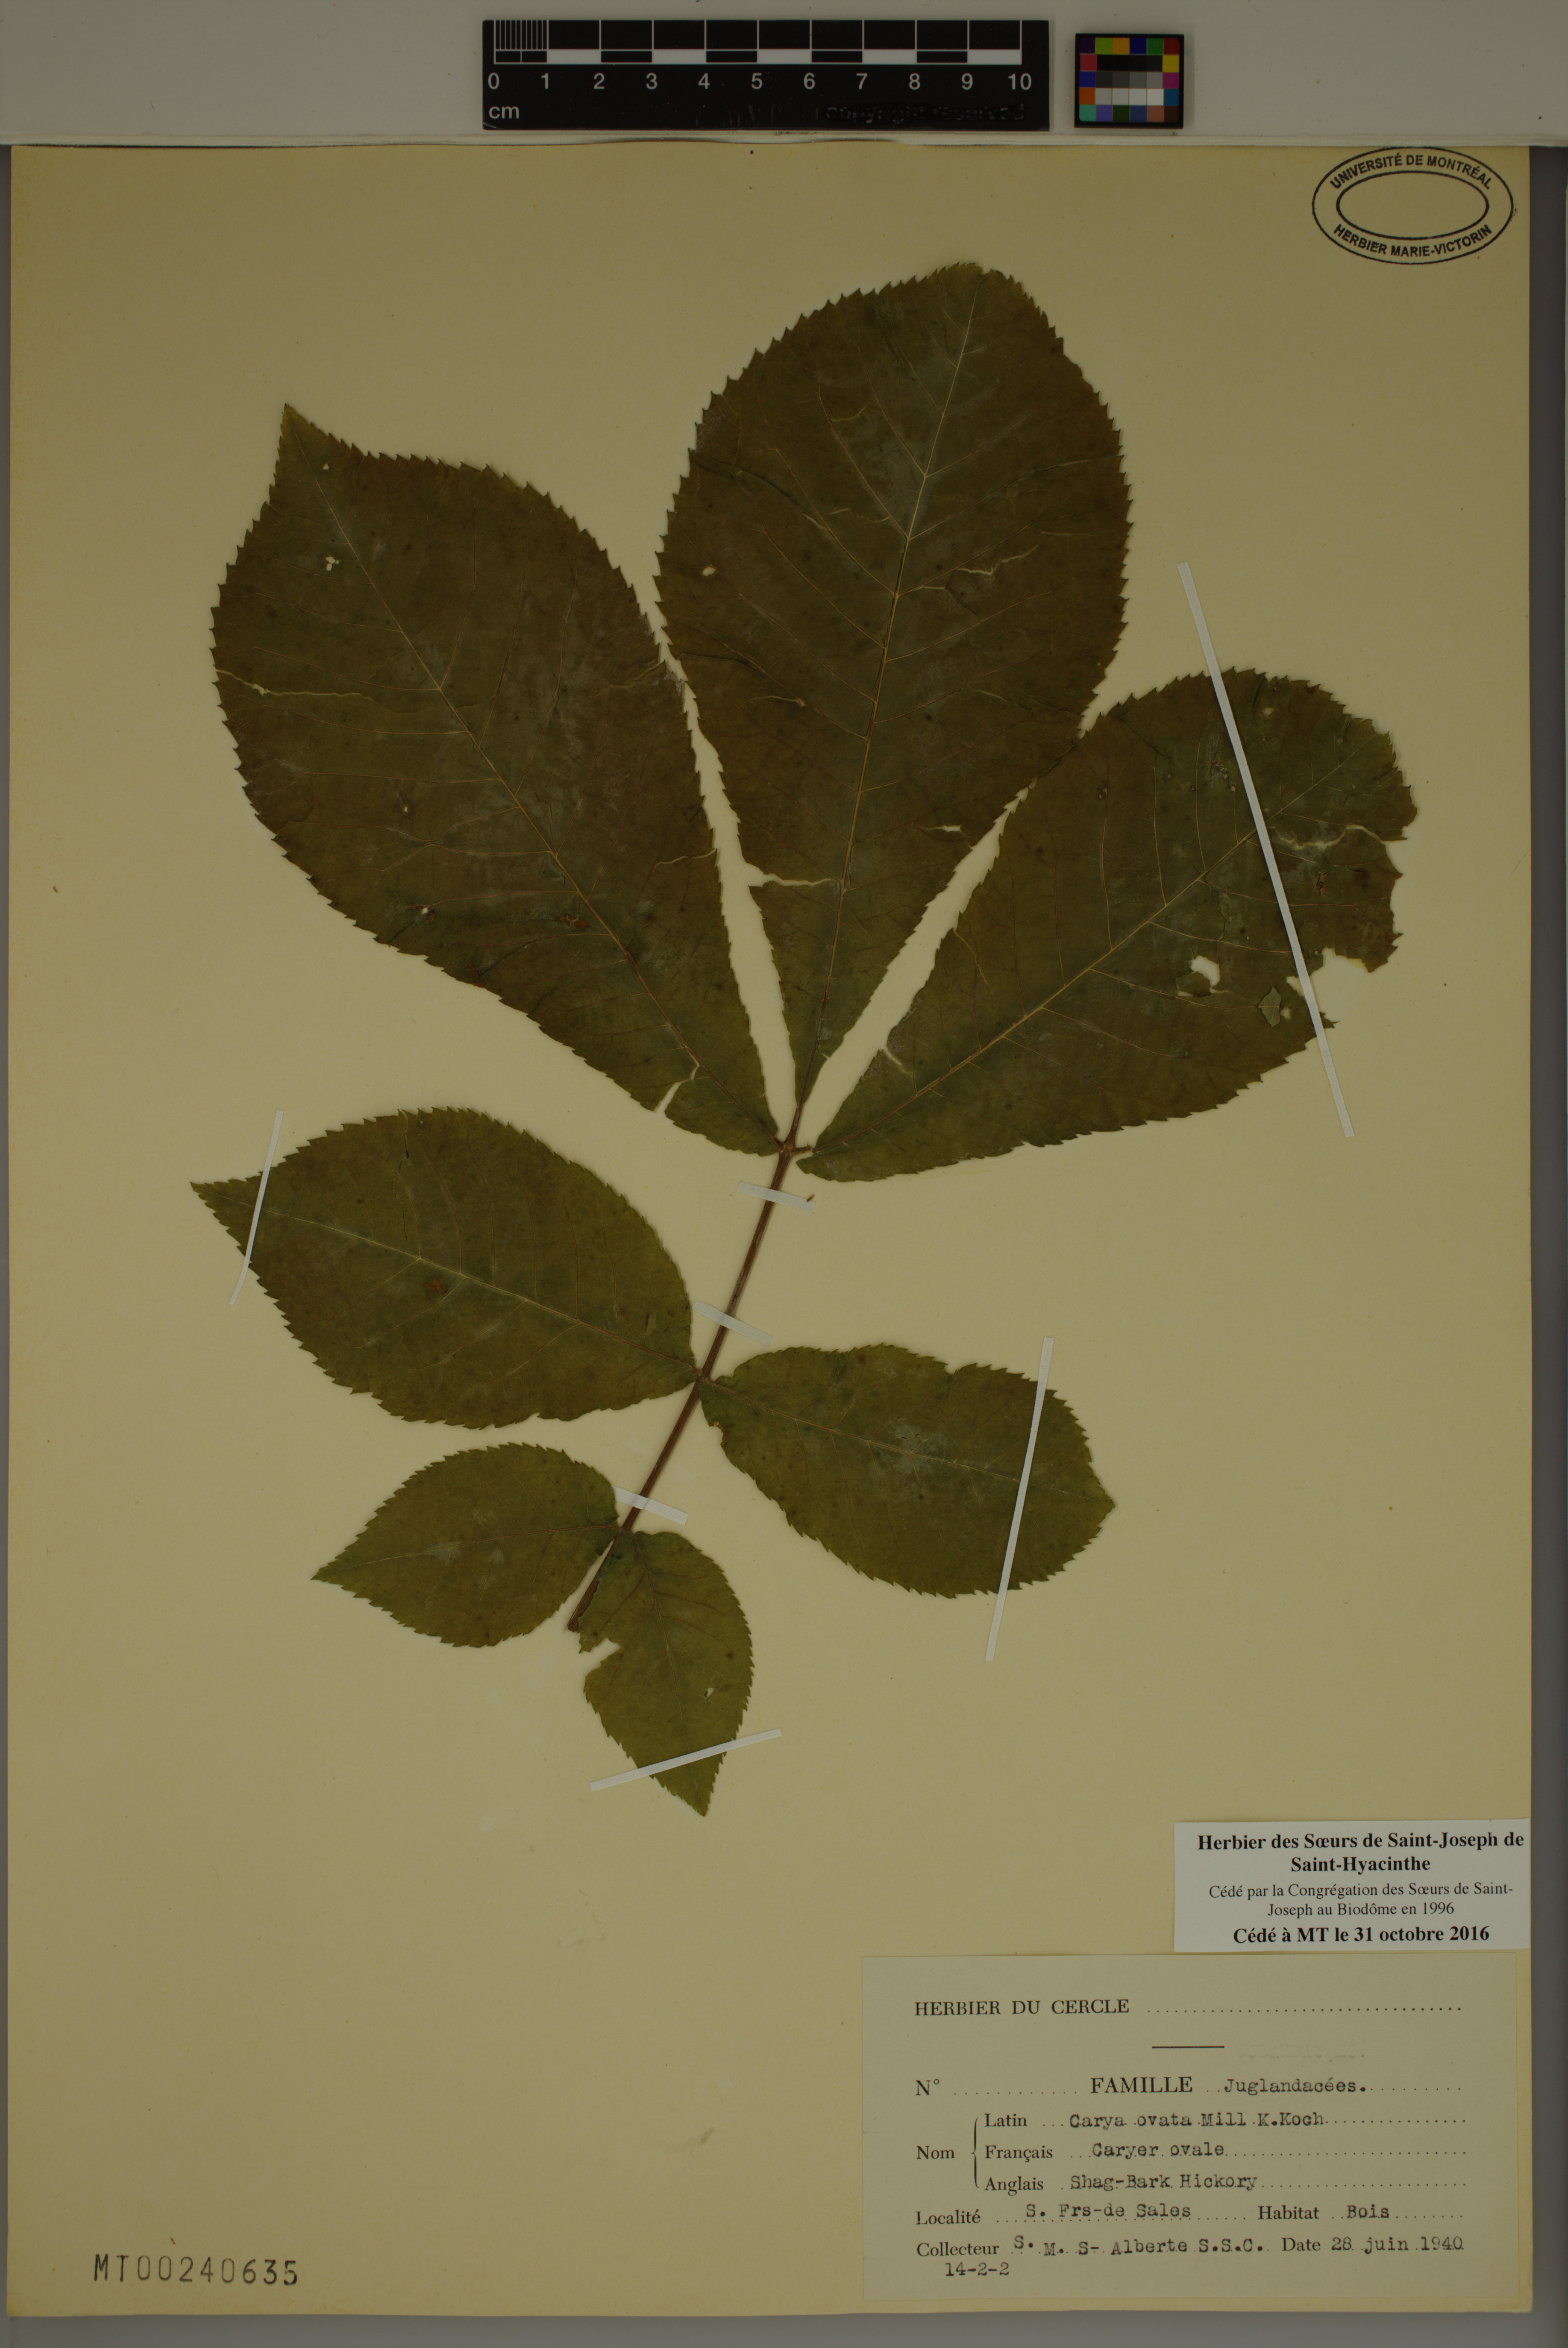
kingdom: Plantae
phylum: Tracheophyta
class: Magnoliopsida
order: Fagales
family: Juglandaceae
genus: Carya
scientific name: Carya ovata
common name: Shagbark hickory
